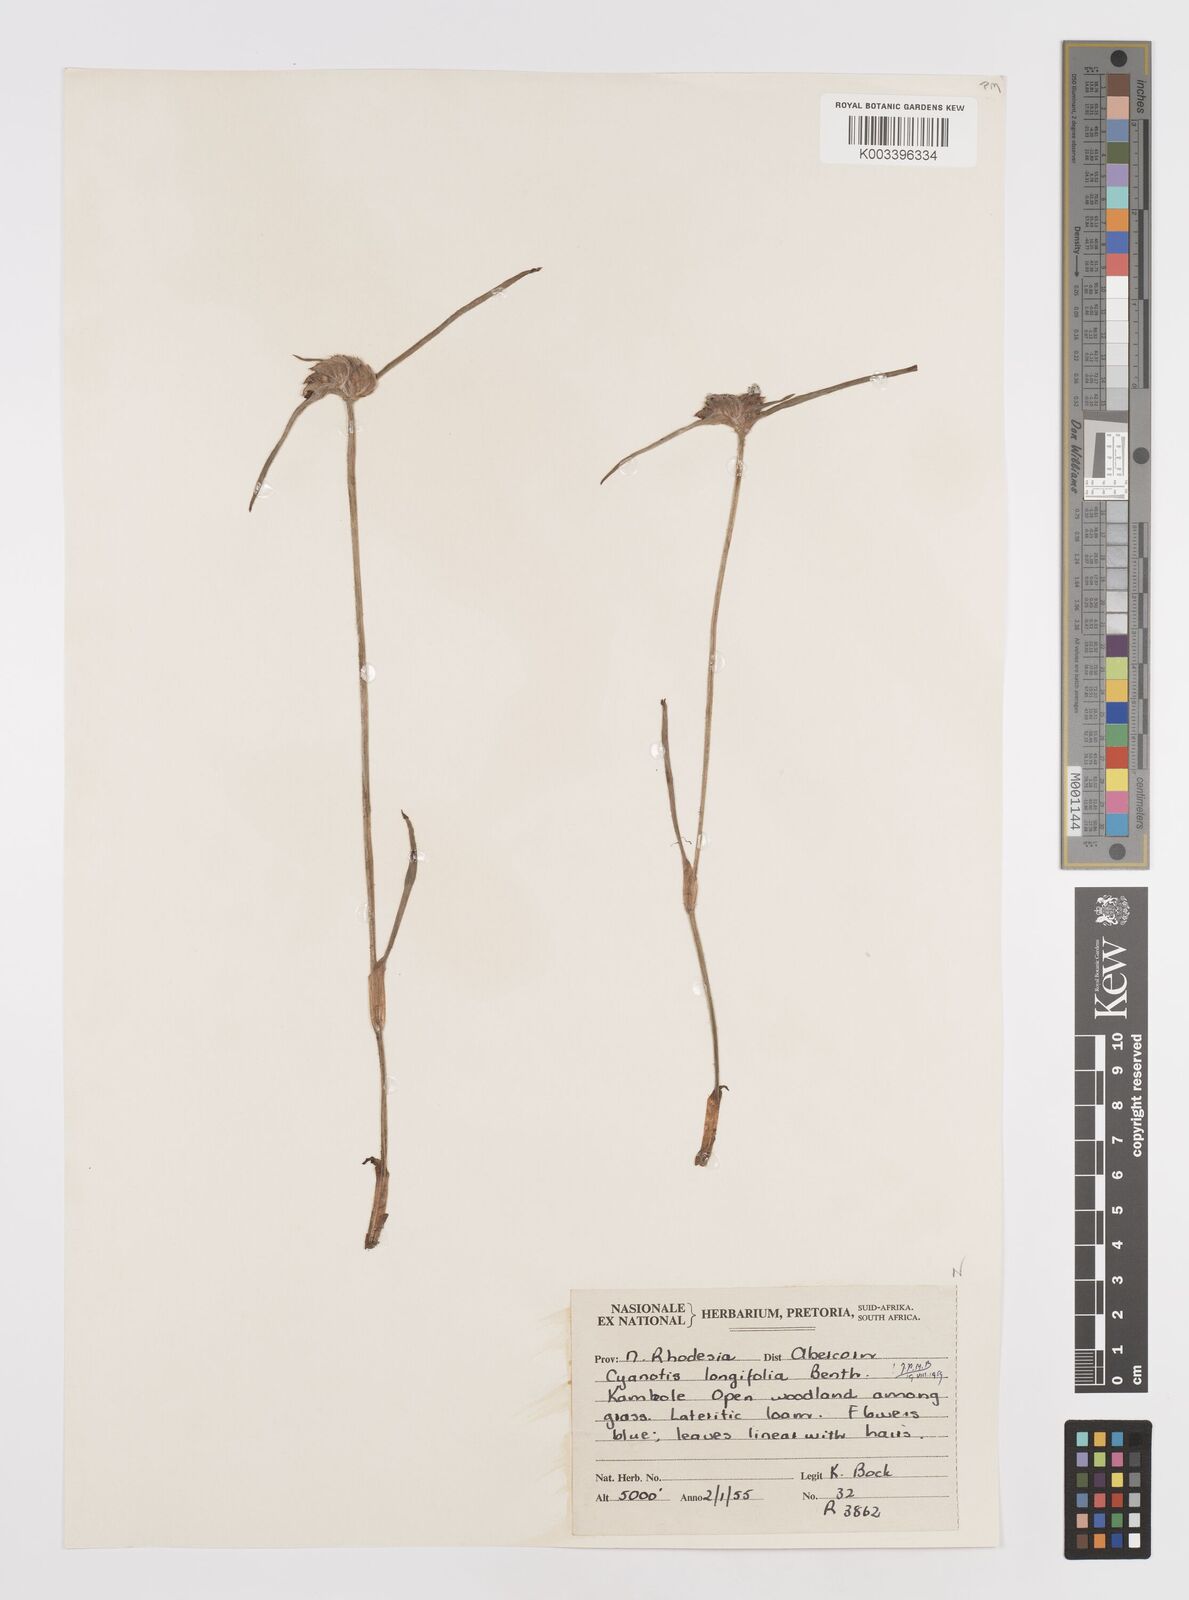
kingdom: Plantae
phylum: Tracheophyta
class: Liliopsida
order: Commelinales
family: Commelinaceae
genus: Cyanotis
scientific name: Cyanotis longifolia
